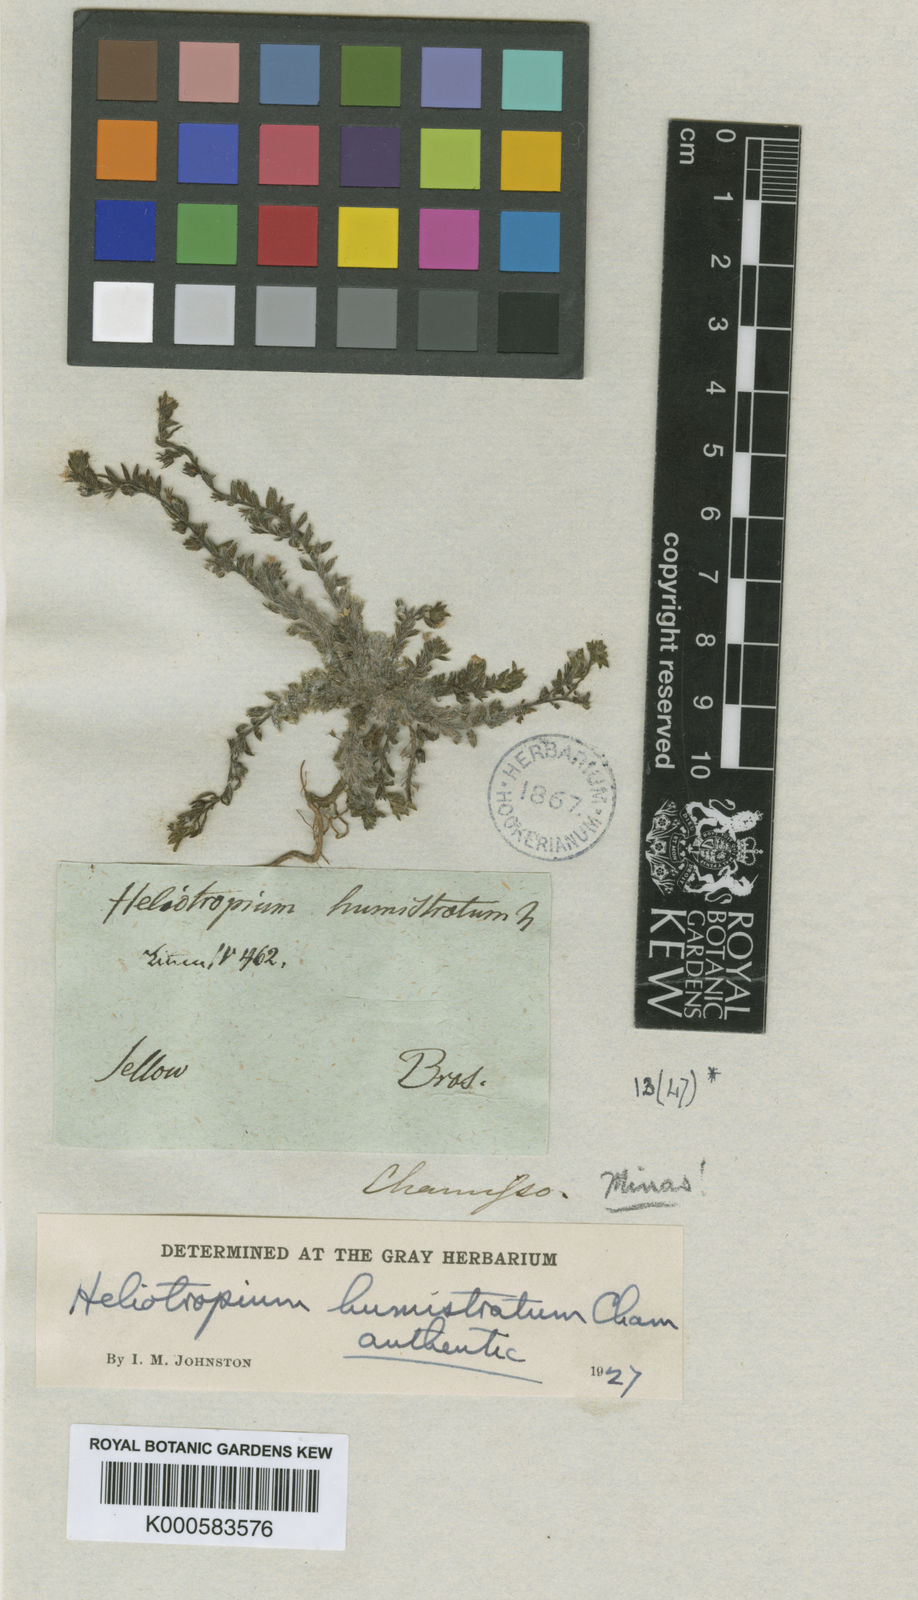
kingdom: Plantae
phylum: Tracheophyta
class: Magnoliopsida
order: Boraginales
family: Heliotropiaceae
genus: Euploca
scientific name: Euploca humistrata
